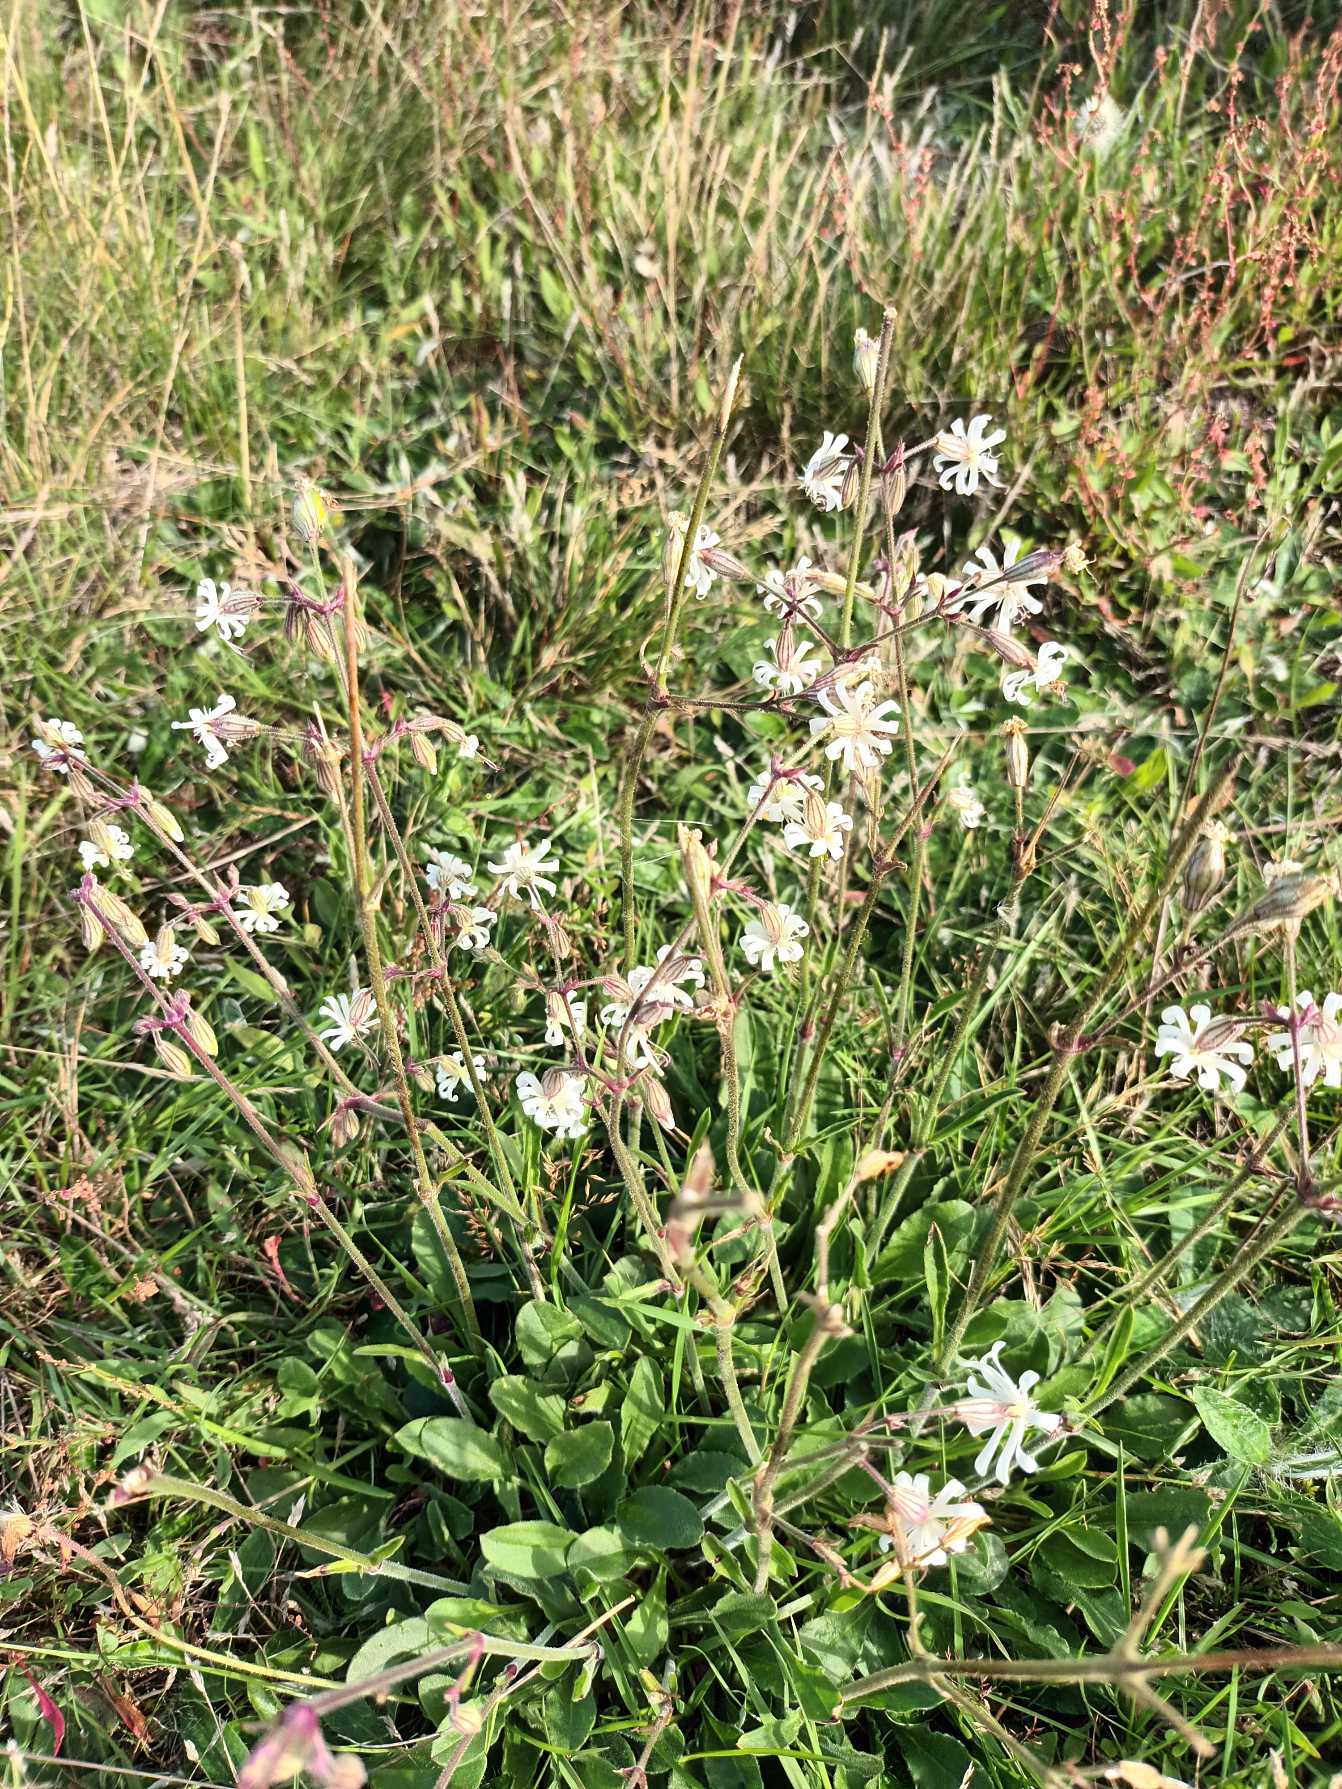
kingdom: Plantae
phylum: Tracheophyta
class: Magnoliopsida
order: Caryophyllales
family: Caryophyllaceae
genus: Silene
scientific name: Silene nutans
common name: Nikkende limurt
